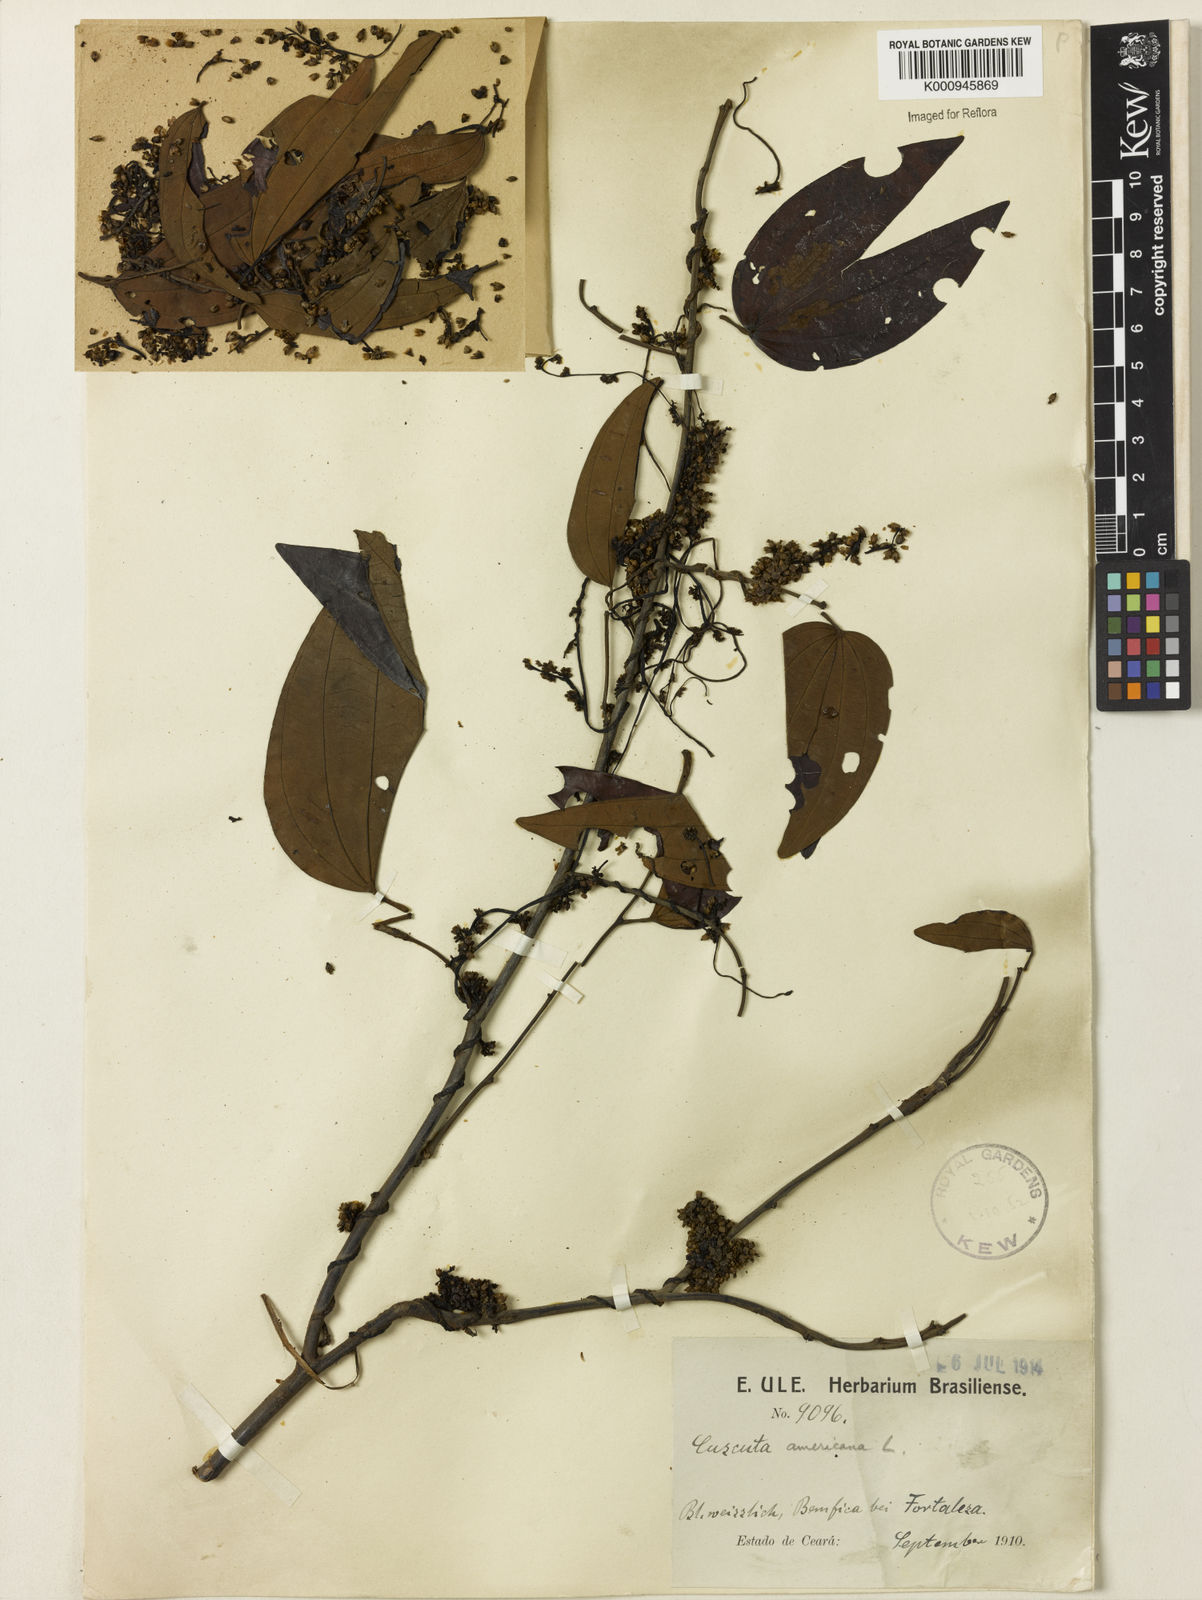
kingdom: Plantae
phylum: Tracheophyta
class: Magnoliopsida
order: Solanales
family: Convolvulaceae
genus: Cuscuta
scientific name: Cuscuta americana
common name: American dodder
